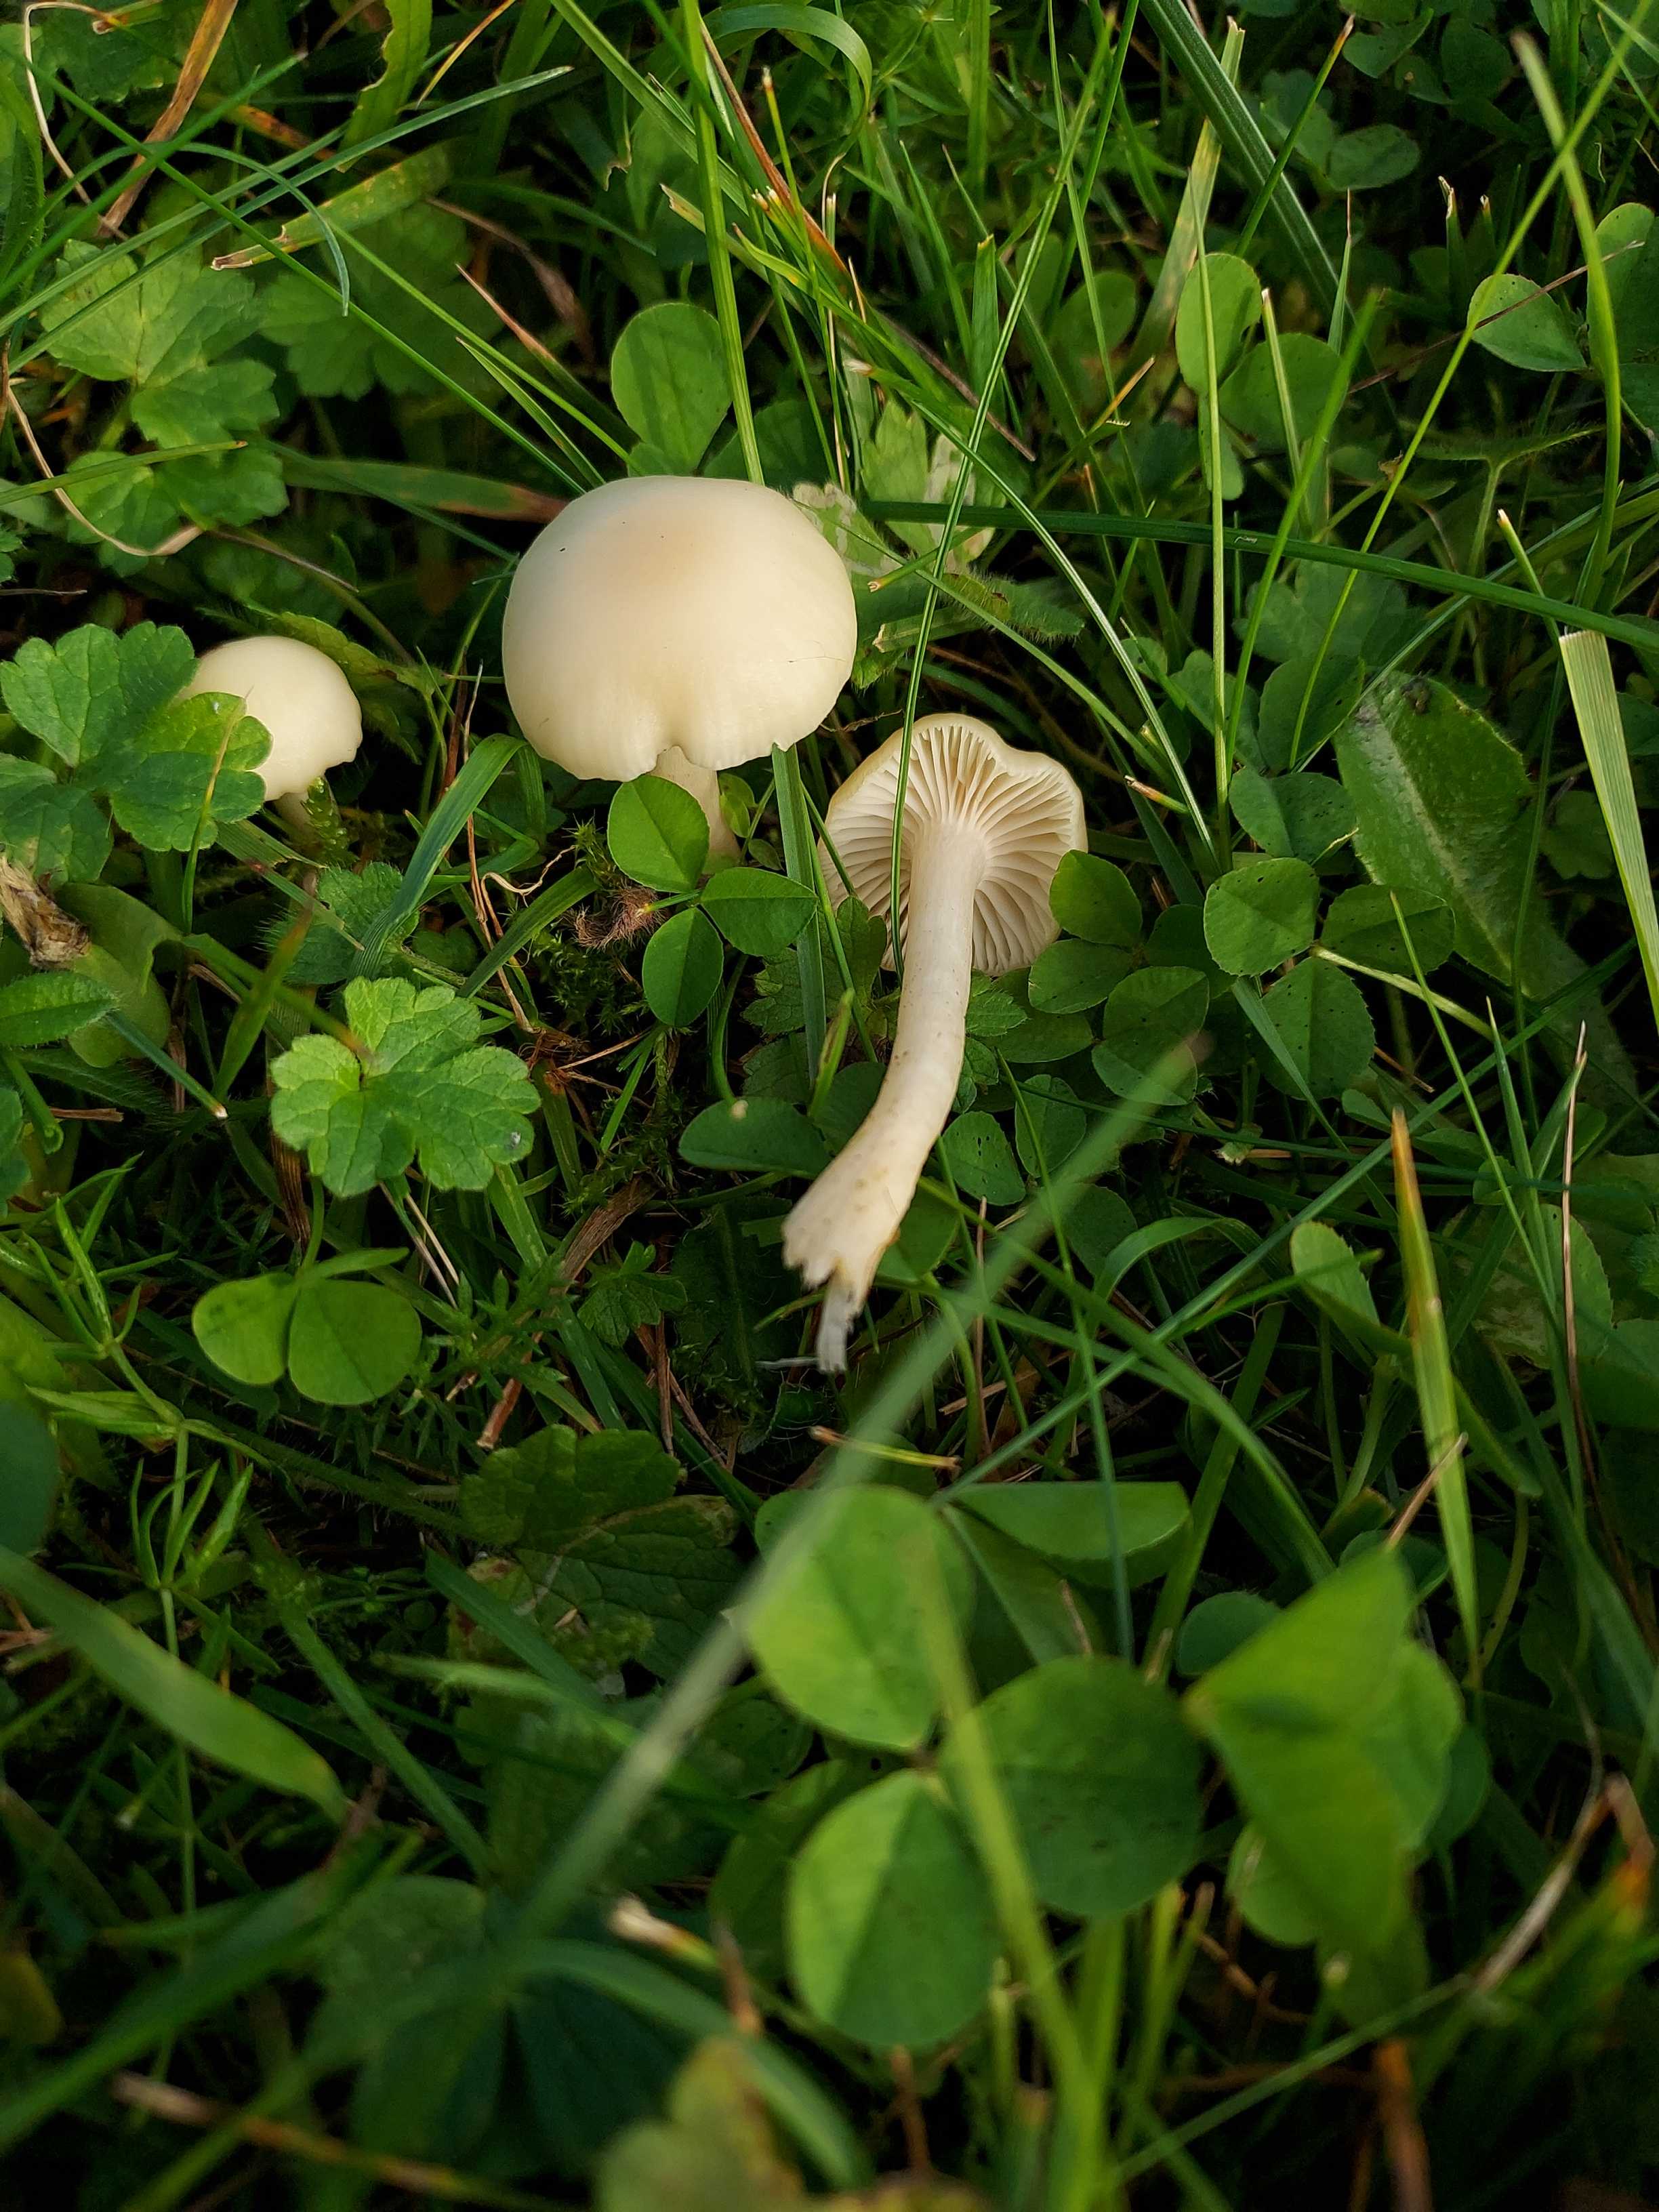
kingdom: Fungi
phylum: Basidiomycota
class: Agaricomycetes
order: Agaricales
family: Hygrophoraceae
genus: Cuphophyllus
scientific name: Cuphophyllus virgineus
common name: snehvid vokshat
